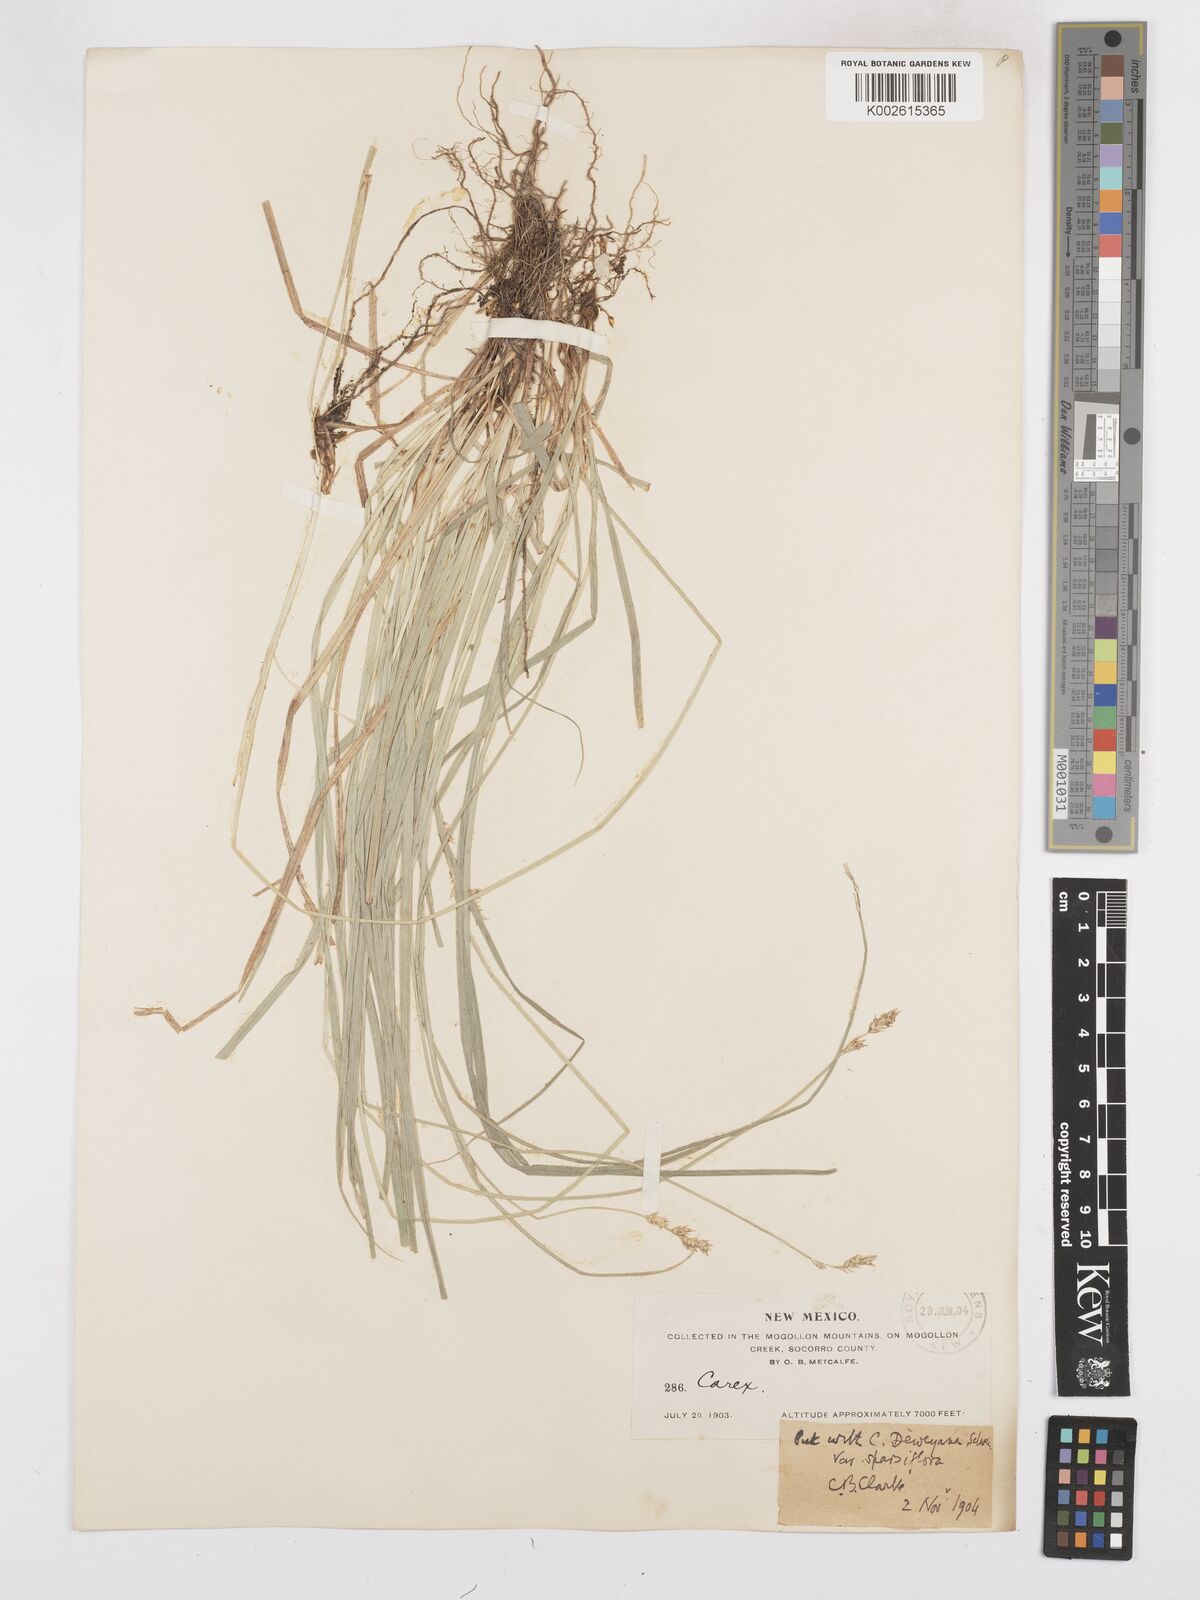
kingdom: Plantae
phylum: Tracheophyta
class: Liliopsida
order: Poales
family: Cyperaceae
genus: Carex
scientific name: Carex deweyana
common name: Dewey's sedge
